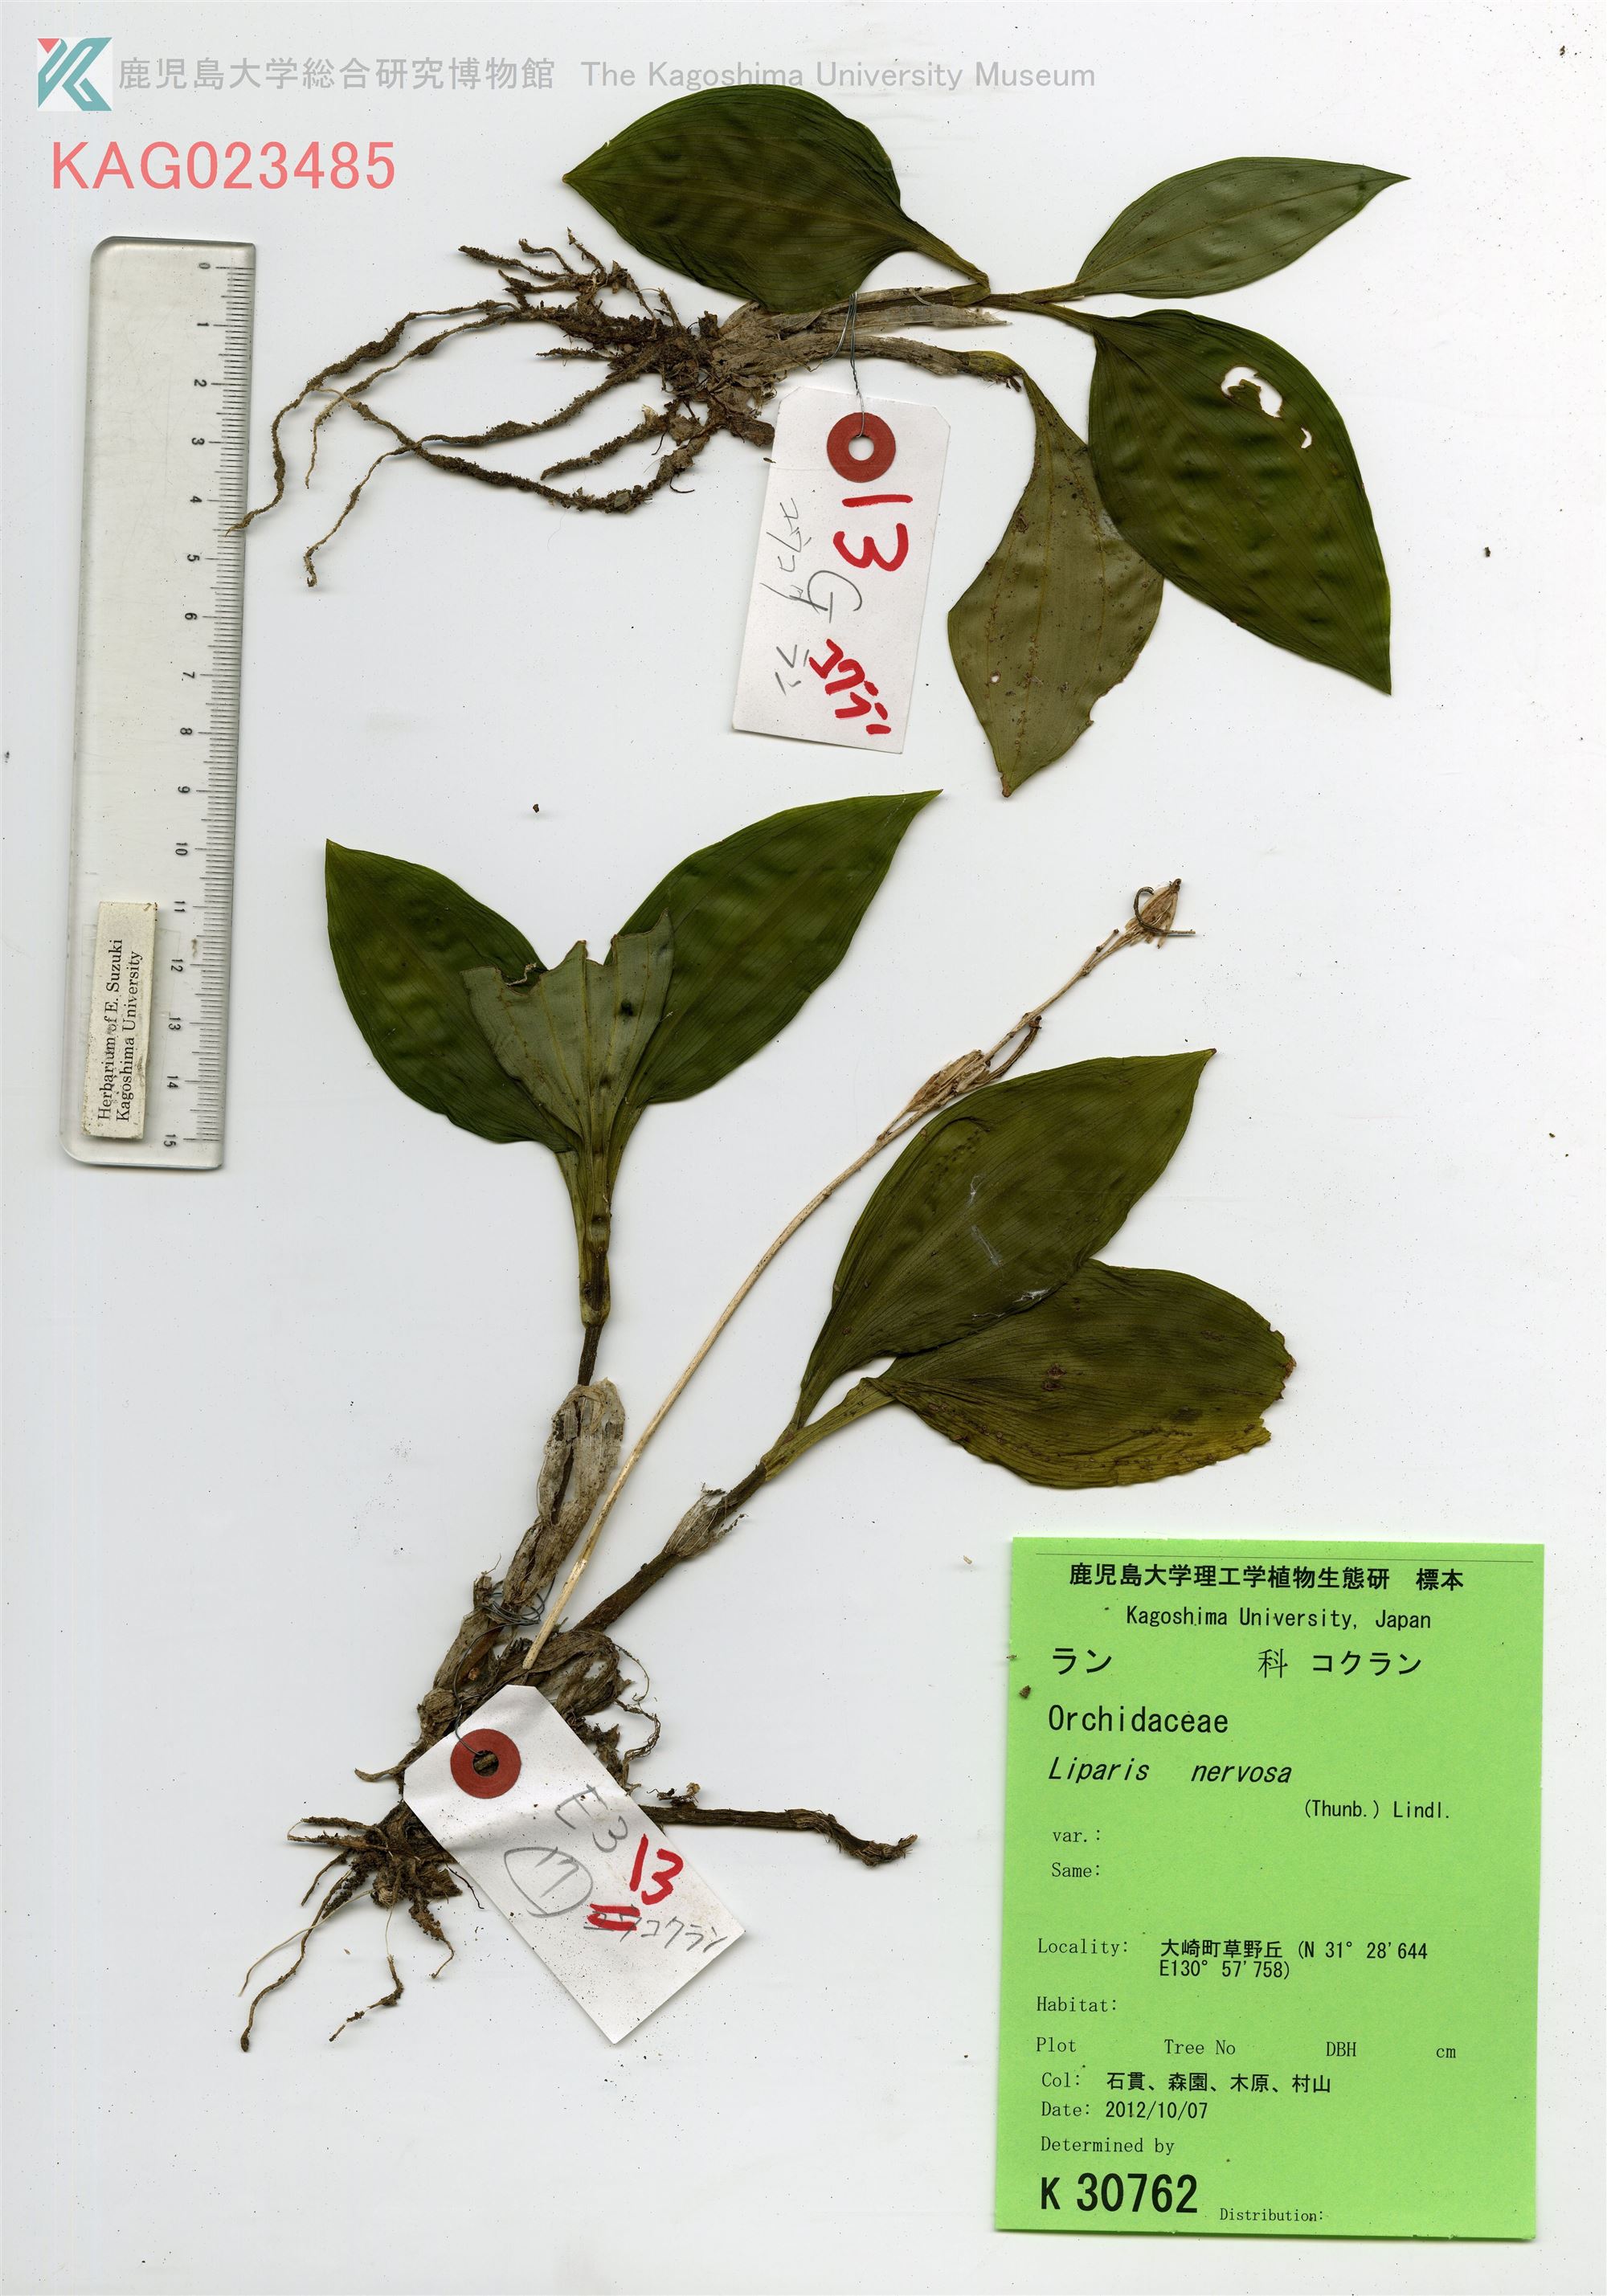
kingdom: Plantae
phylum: Tracheophyta
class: Liliopsida
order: Asparagales
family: Orchidaceae
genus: Liparis
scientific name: Liparis nervosa
